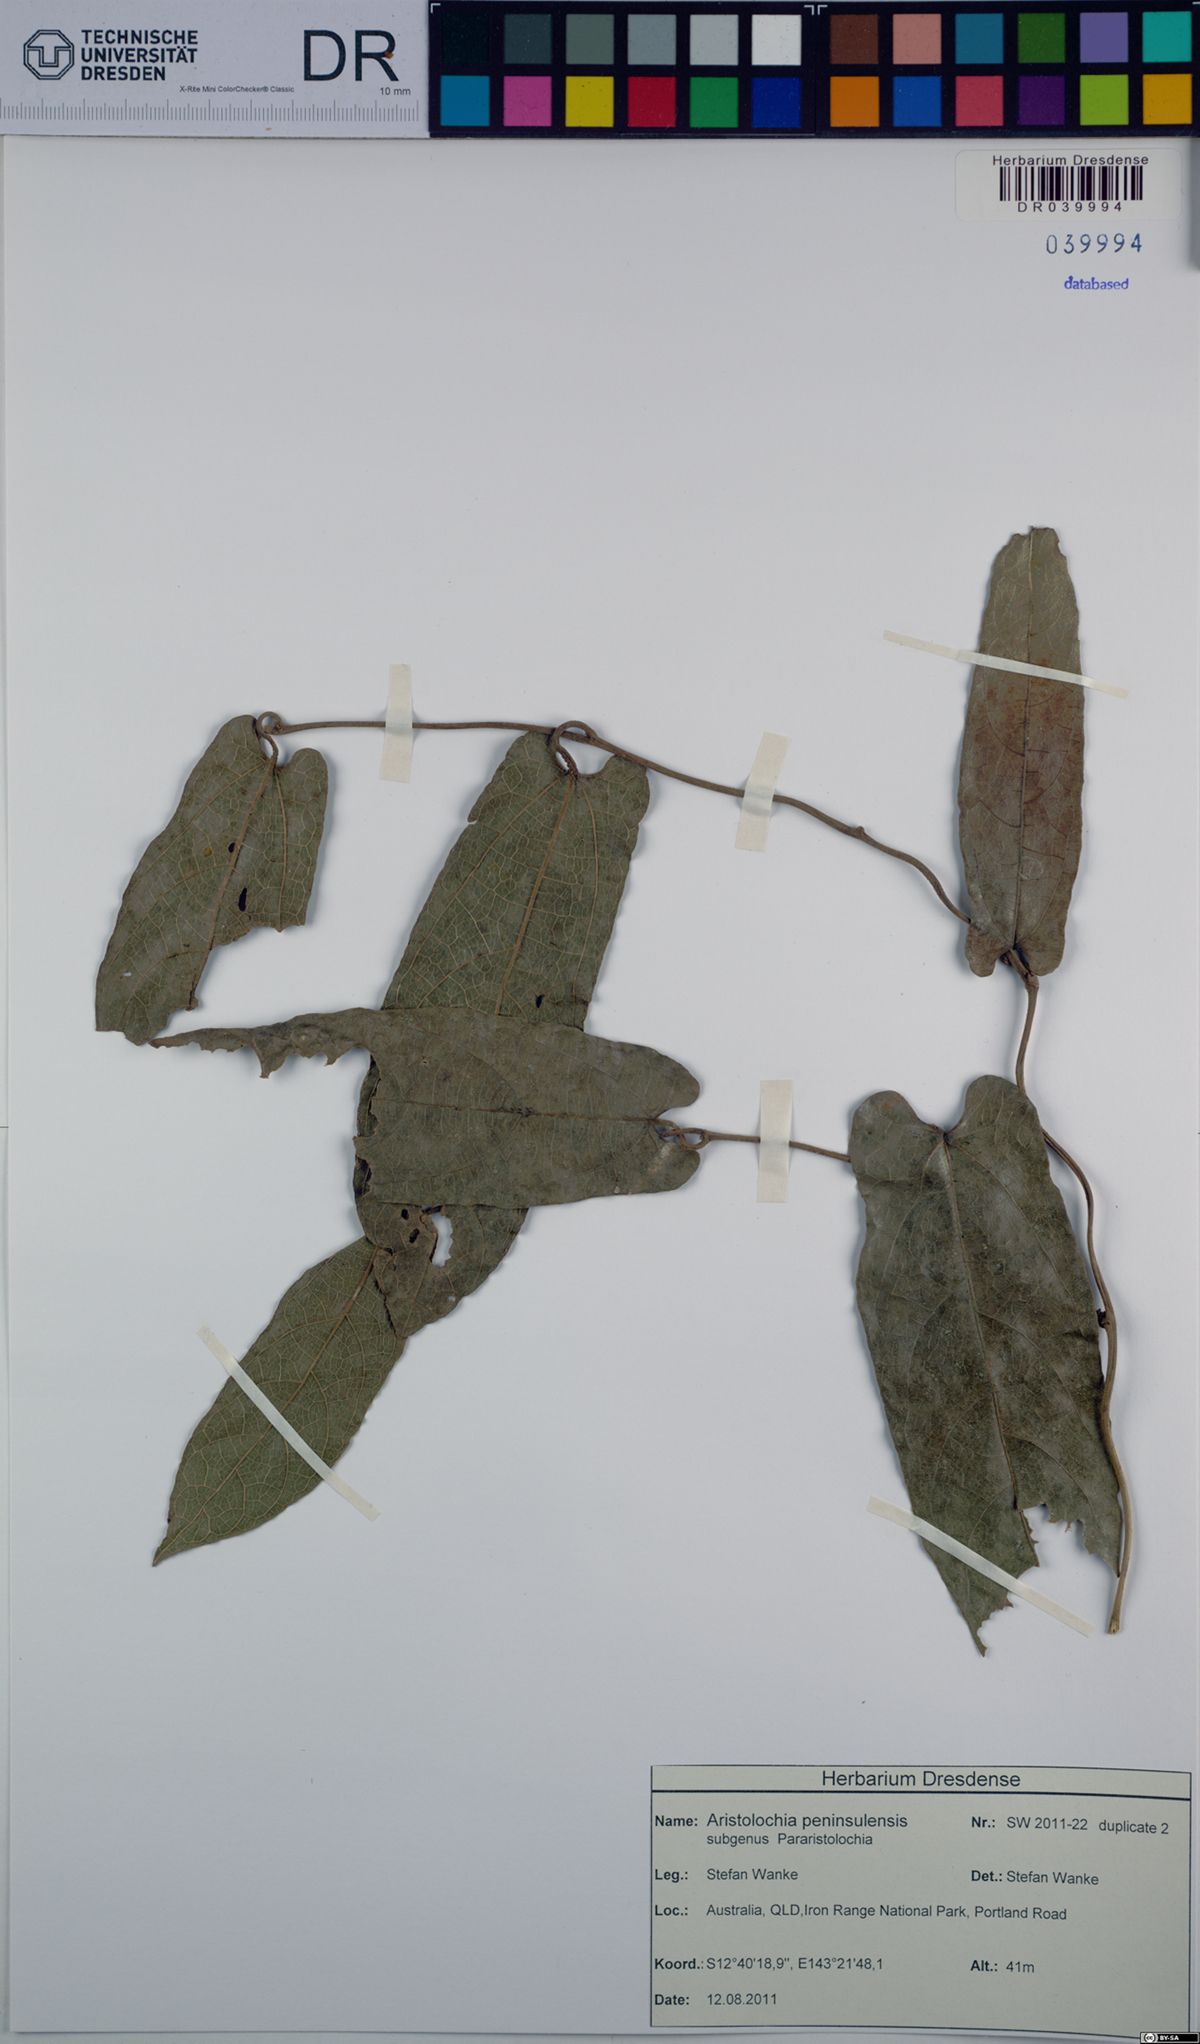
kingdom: Plantae
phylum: Tracheophyta
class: Magnoliopsida
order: Piperales
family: Aristolochiaceae
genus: Aristolochia
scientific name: Aristolochia peninsulensis
